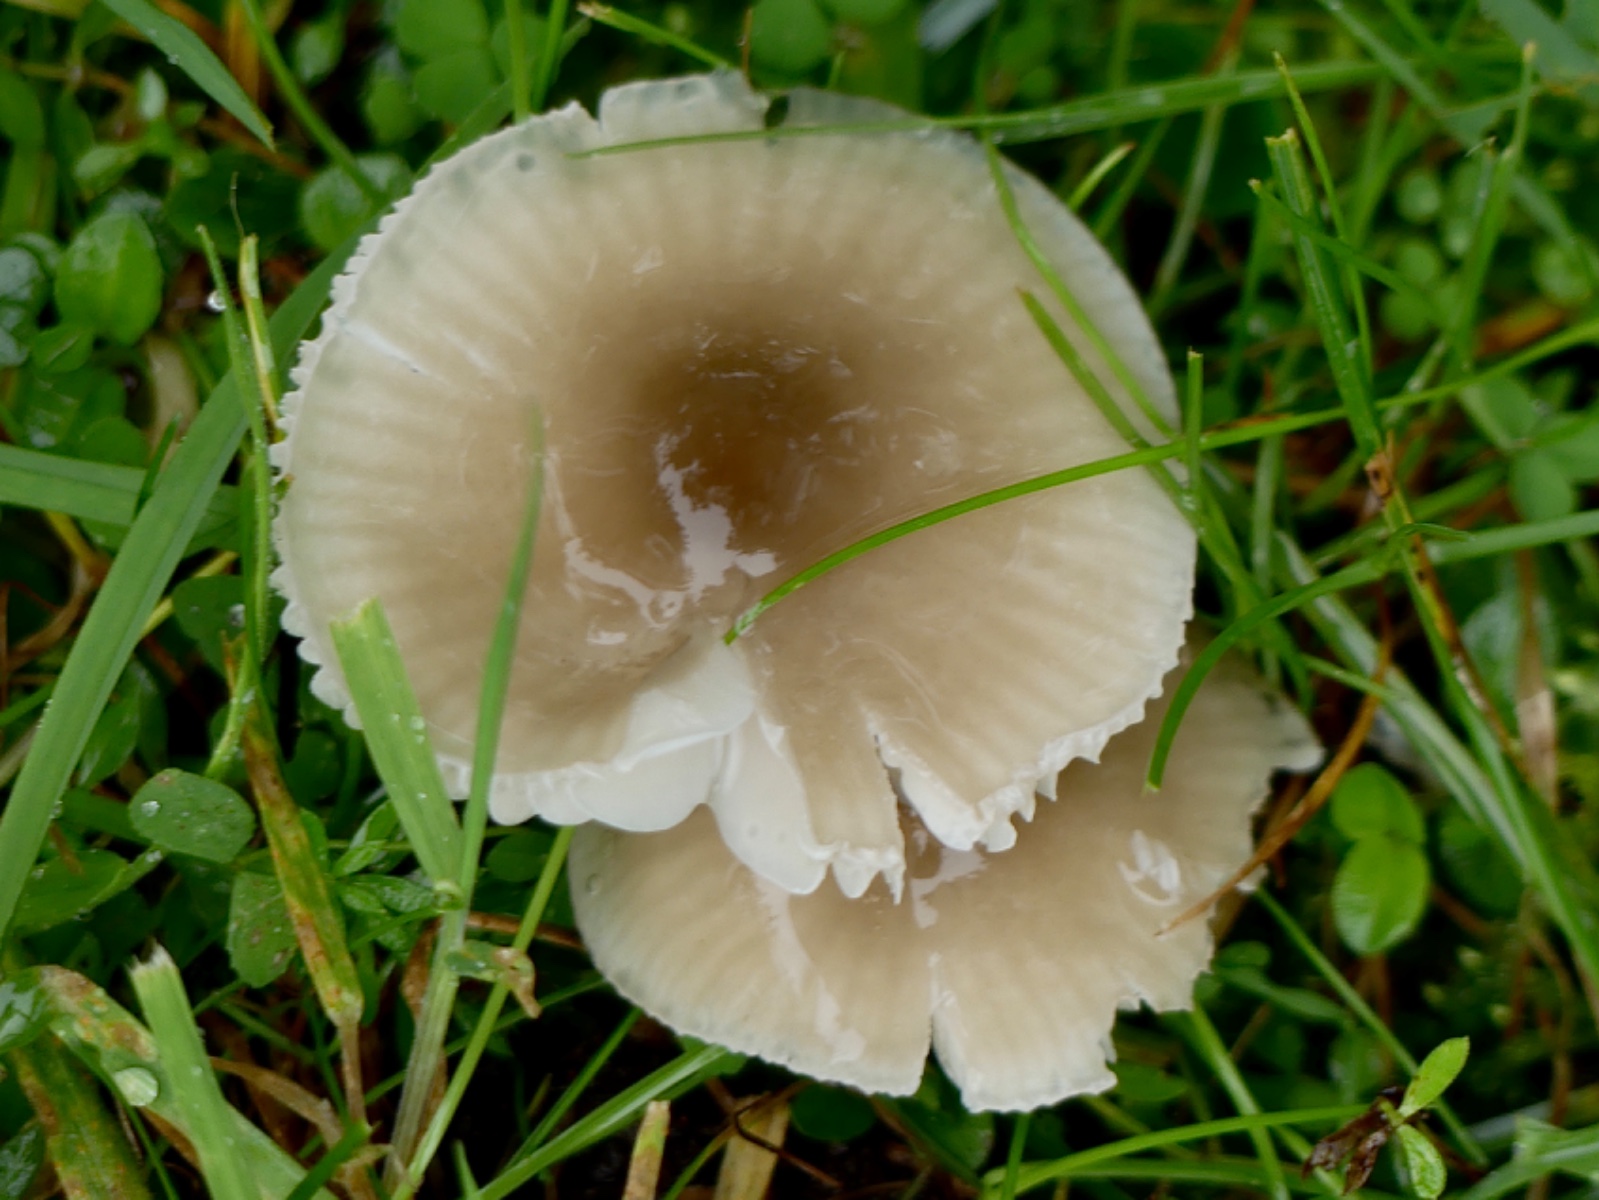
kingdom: Fungi
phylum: Basidiomycota
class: Agaricomycetes
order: Agaricales
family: Hygrophoraceae
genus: Gliophorus
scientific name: Gliophorus irrigatus
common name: slimet vokshat
